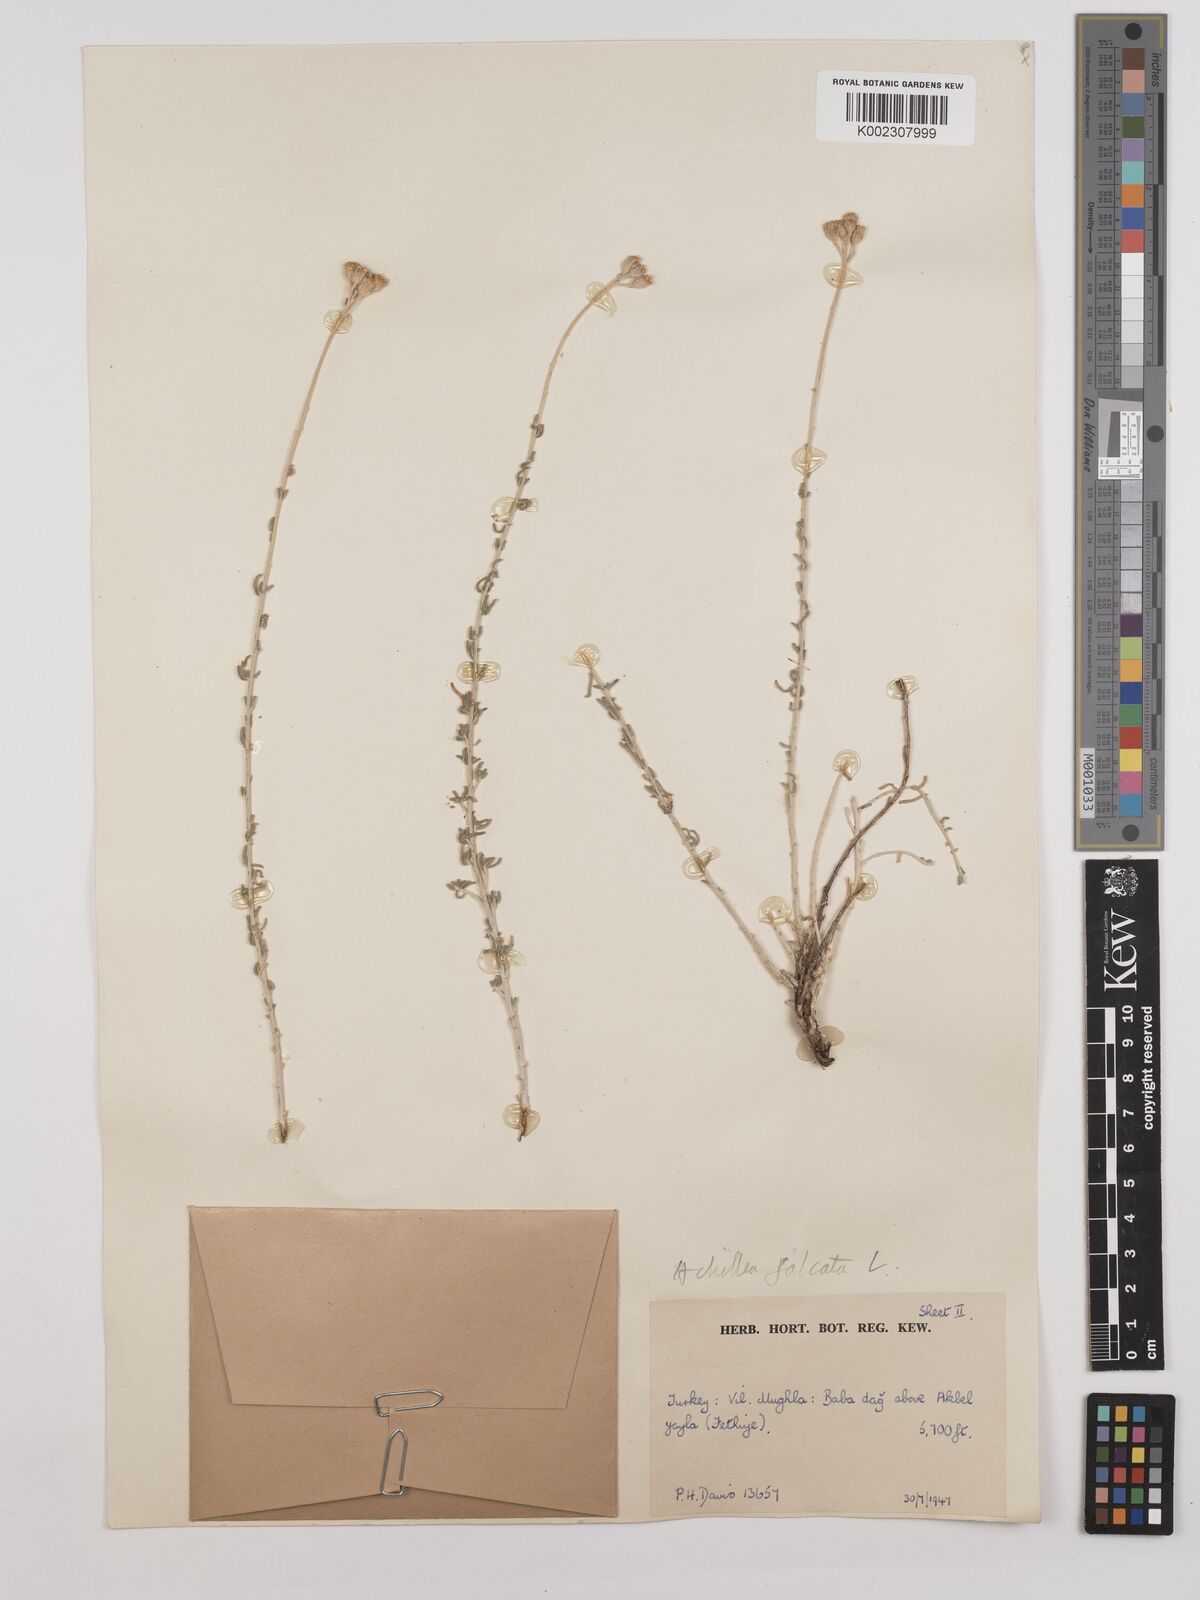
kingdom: Plantae
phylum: Tracheophyta
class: Magnoliopsida
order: Asterales
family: Asteraceae
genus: Achillea
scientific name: Achillea chamaemelifolia
